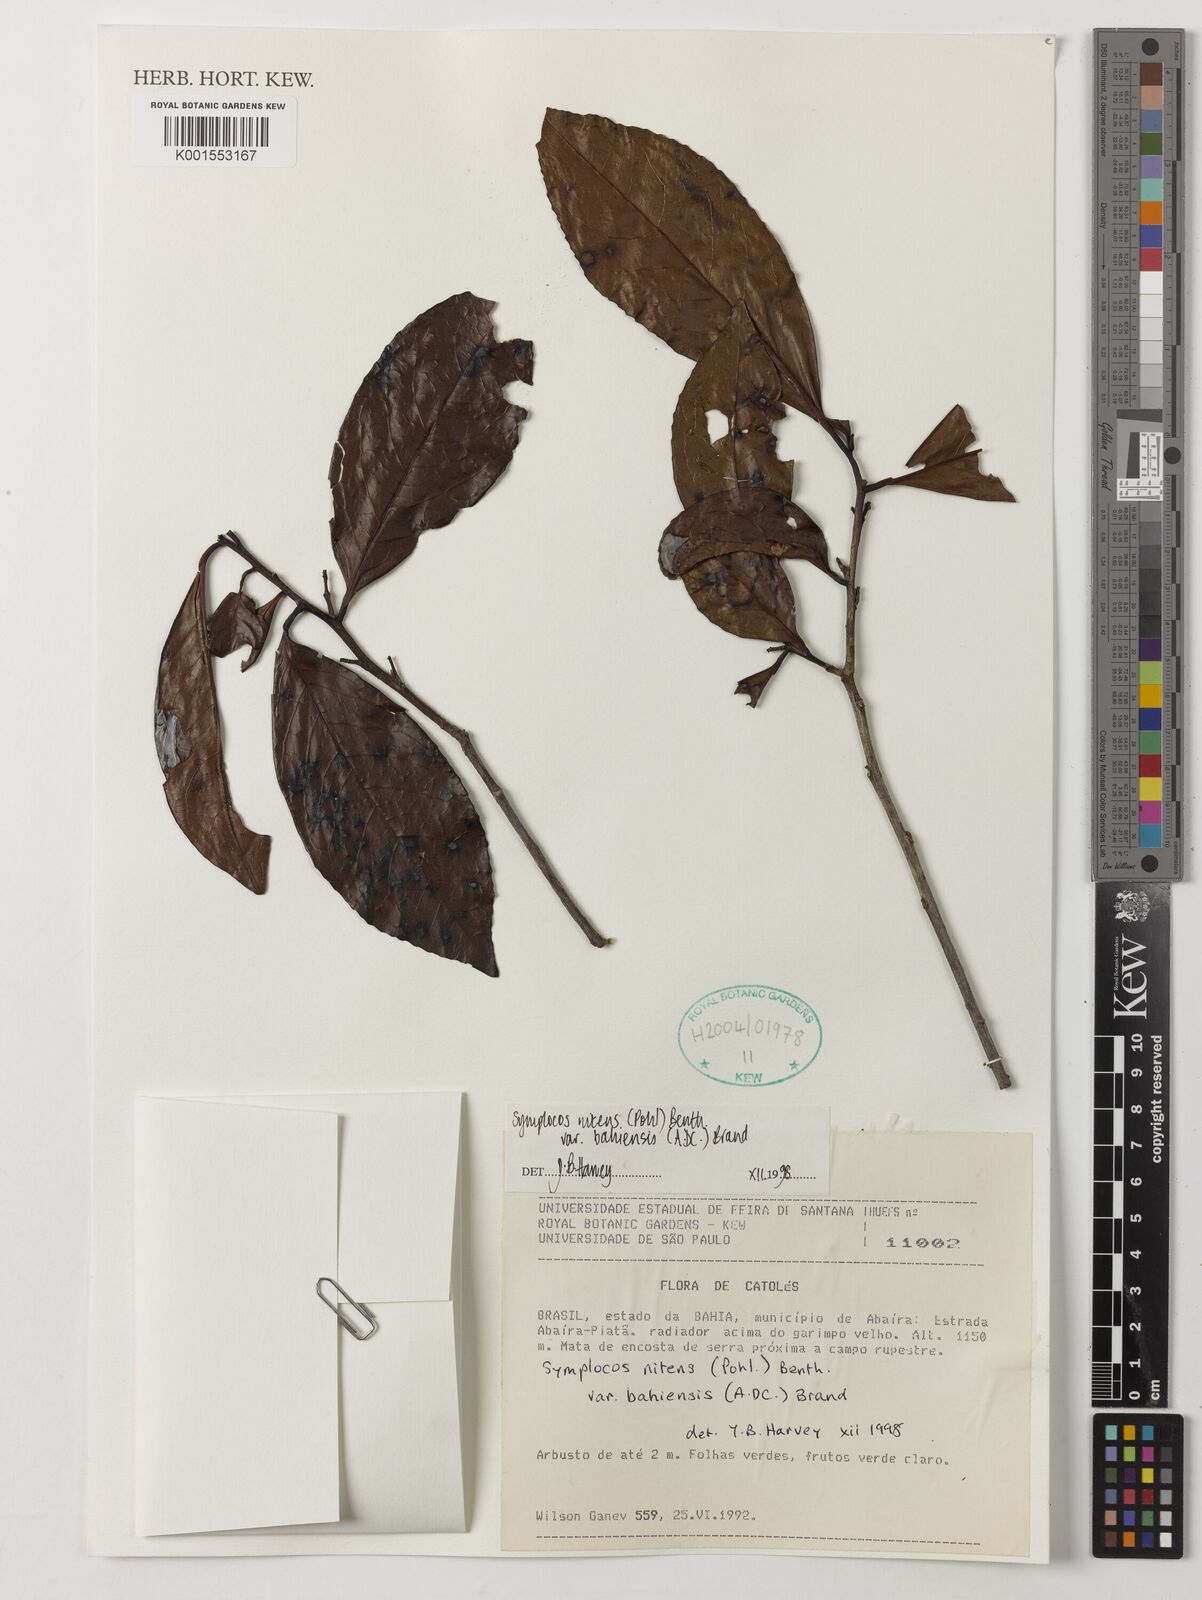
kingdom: Plantae
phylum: Tracheophyta
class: Magnoliopsida
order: Ericales
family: Symplocaceae
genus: Symplocos
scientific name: Symplocos nitens
